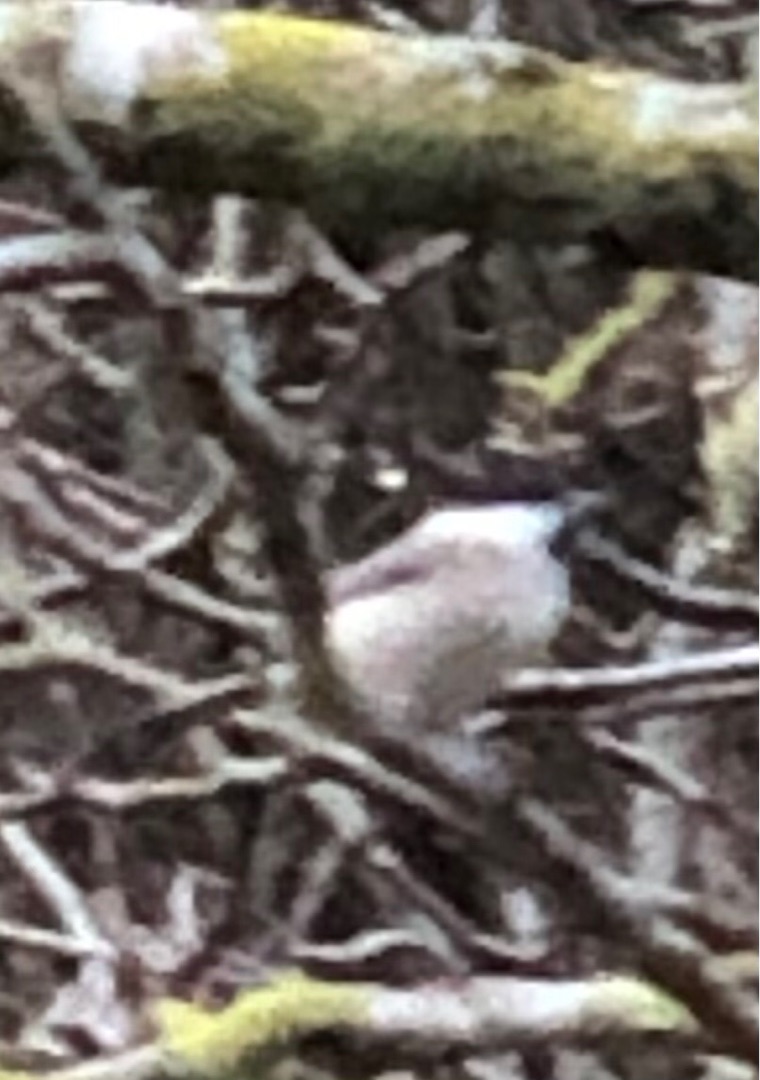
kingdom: Animalia
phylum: Chordata
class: Aves
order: Passeriformes
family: Paridae
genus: Poecile
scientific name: Poecile palustris
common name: Sumpmejse
